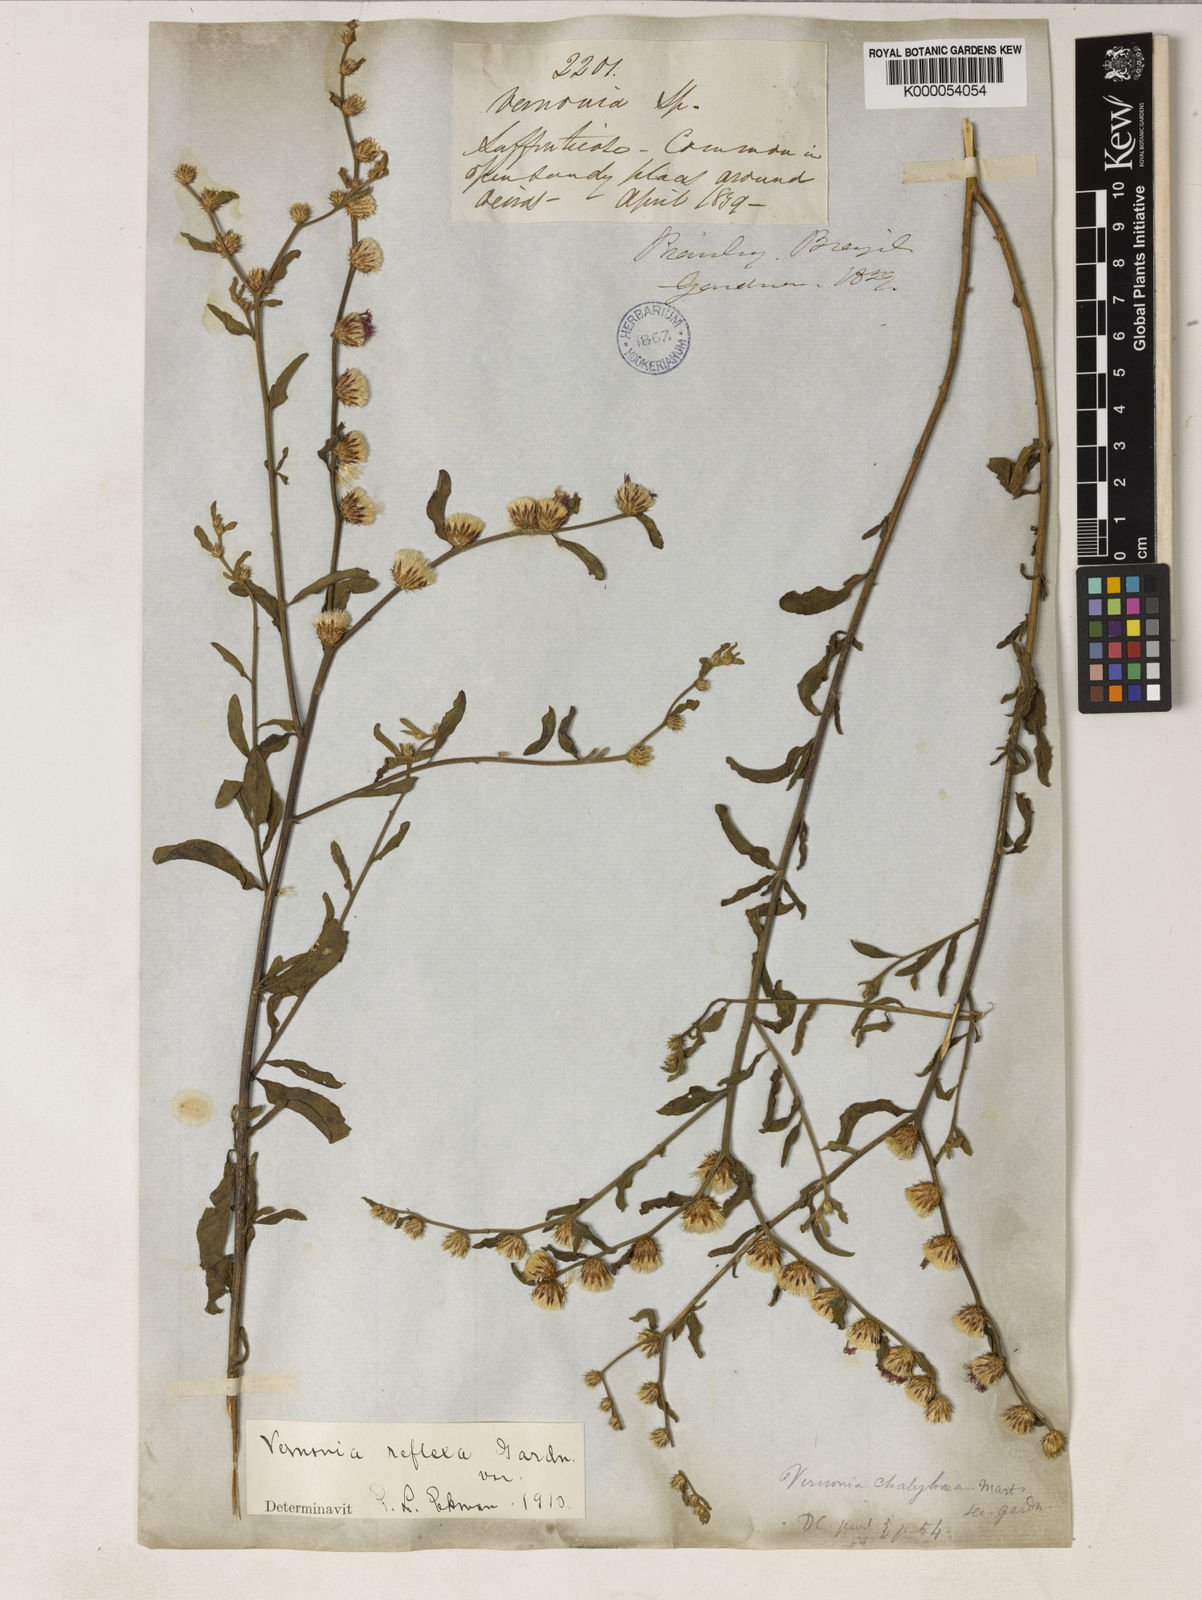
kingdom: Plantae
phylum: Tracheophyta
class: Magnoliopsida
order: Asterales
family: Asteraceae
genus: Lepidaploa
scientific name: Lepidaploa reflexa
